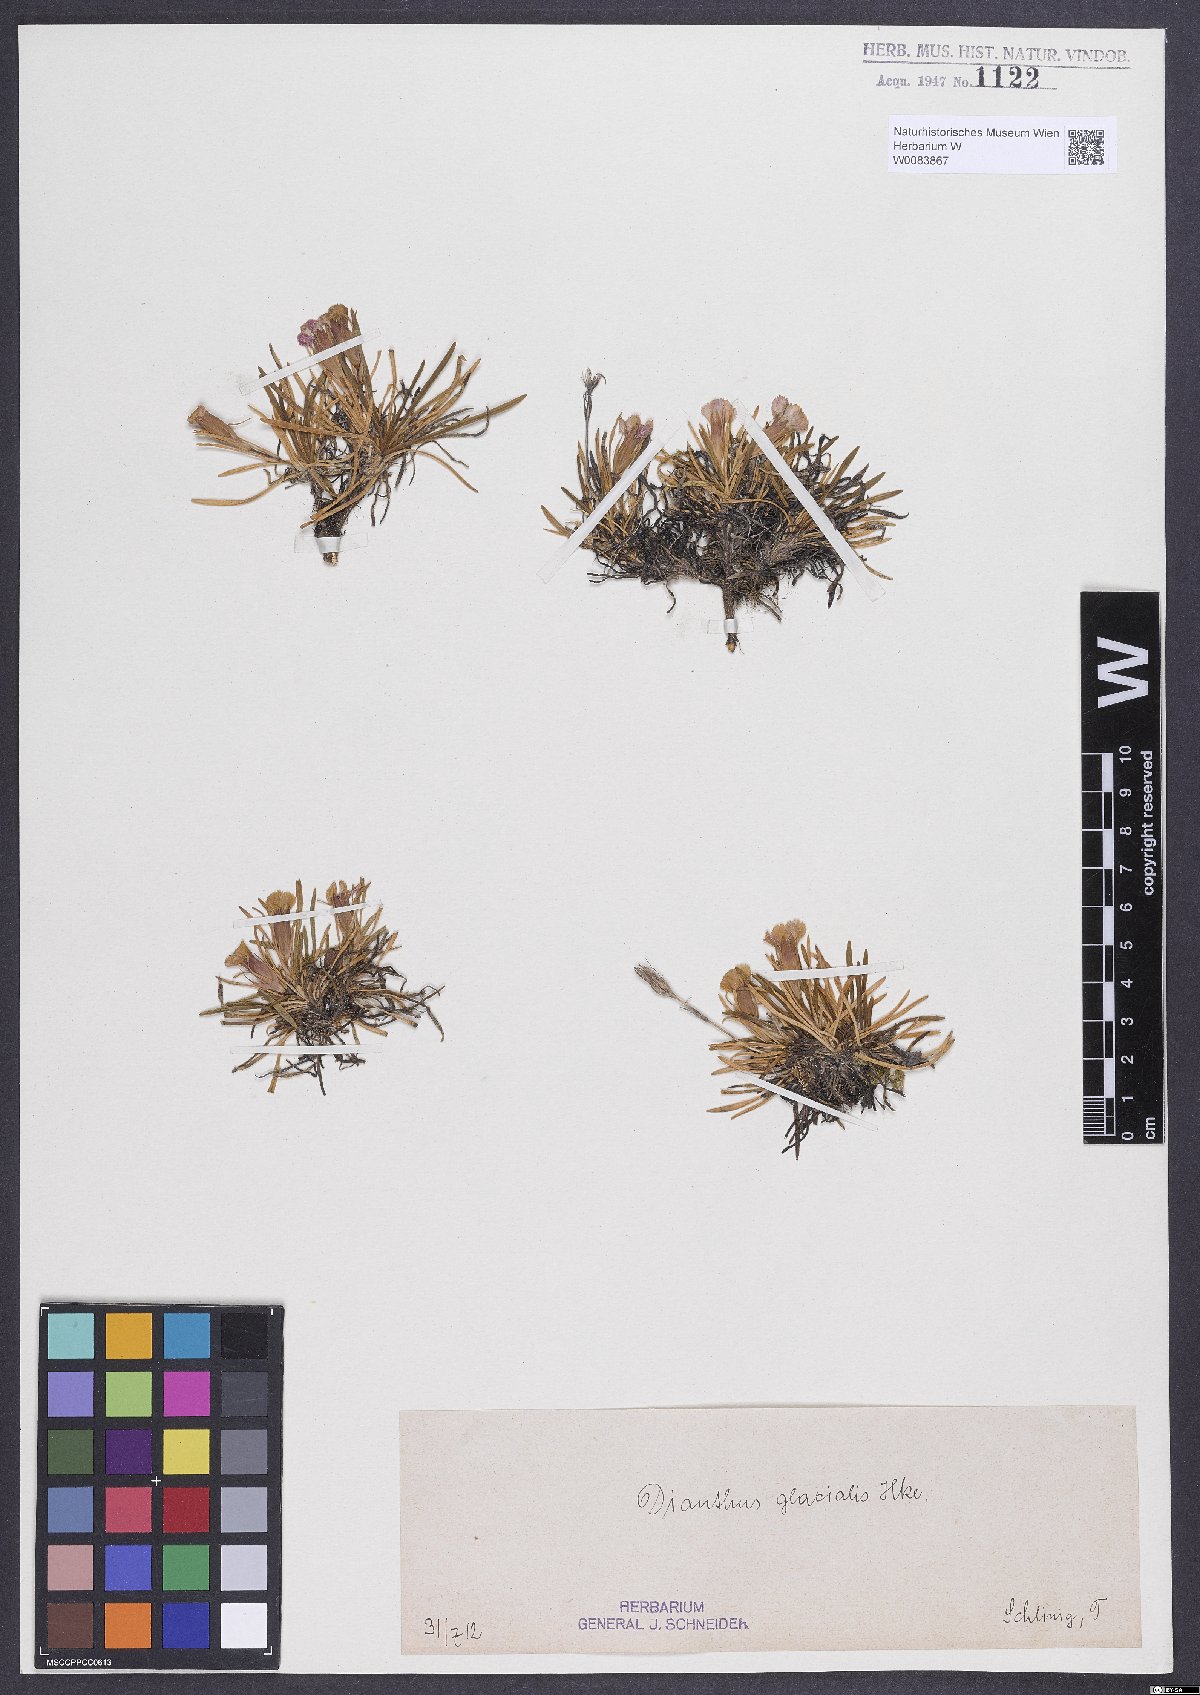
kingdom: Plantae
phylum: Tracheophyta
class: Magnoliopsida
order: Caryophyllales
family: Caryophyllaceae
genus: Dianthus
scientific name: Dianthus glacialis
